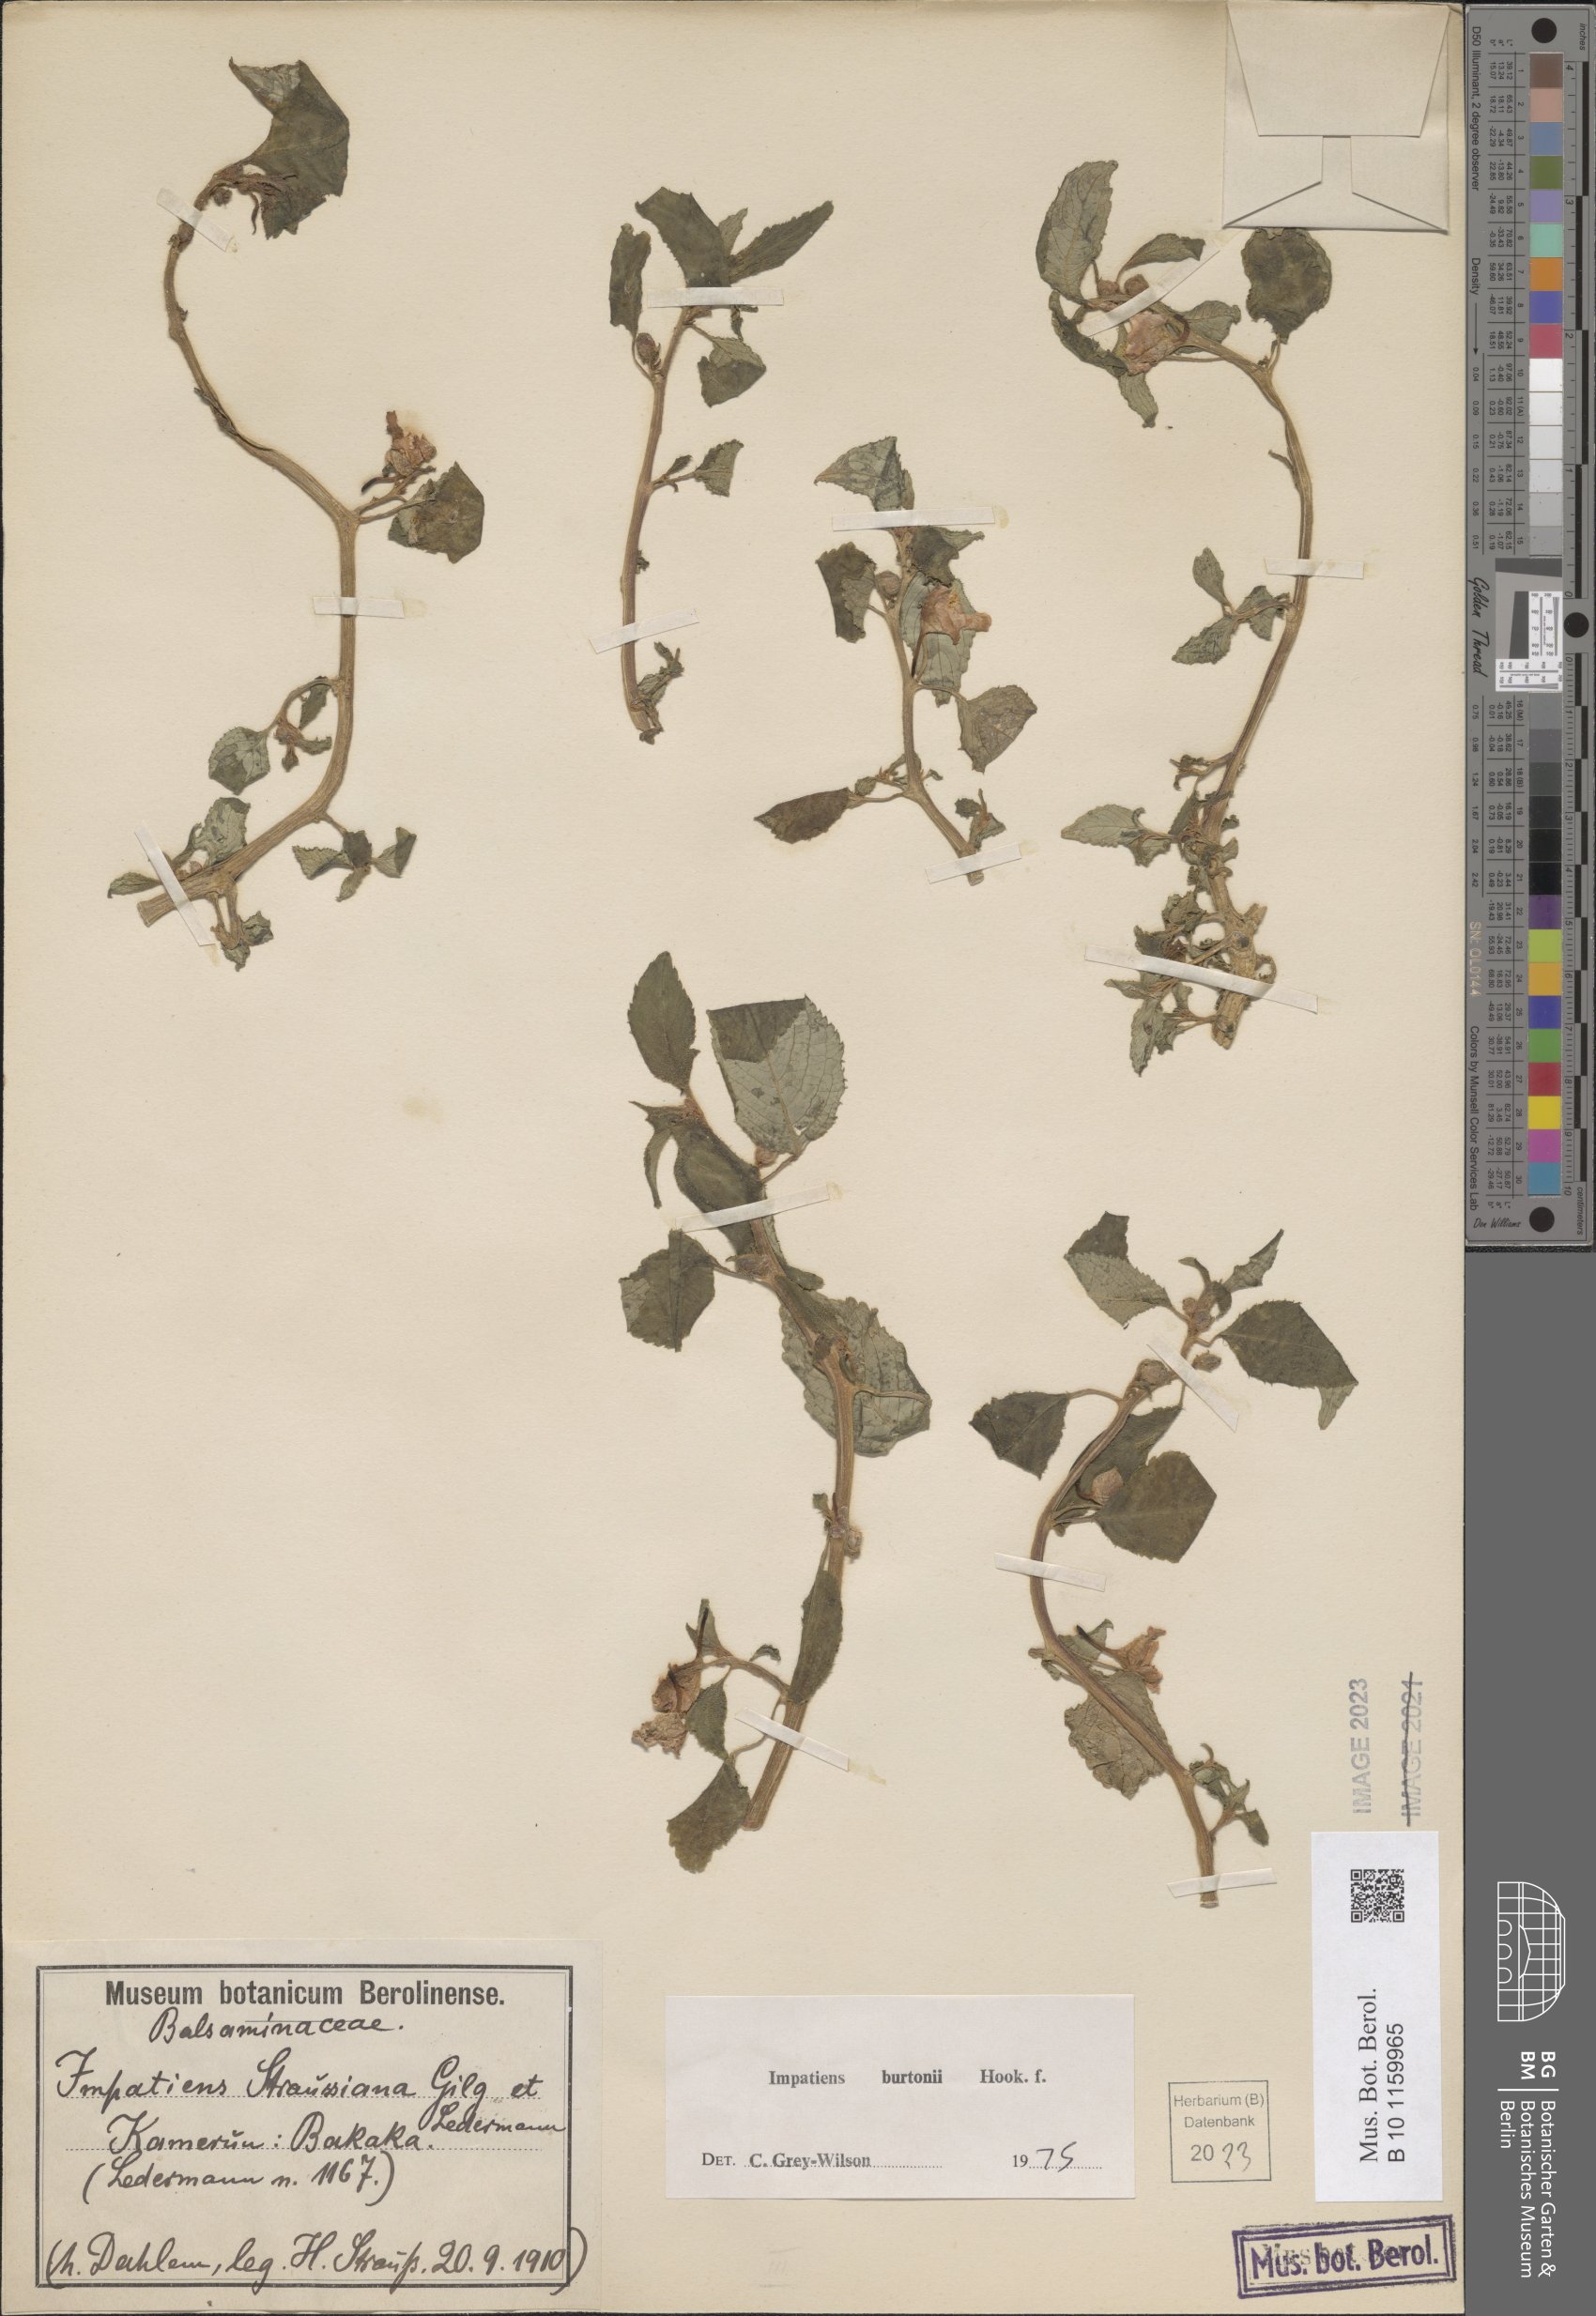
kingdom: Plantae
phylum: Tracheophyta
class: Magnoliopsida
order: Ericales
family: Balsaminaceae
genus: Impatiens
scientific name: Impatiens burtonii
